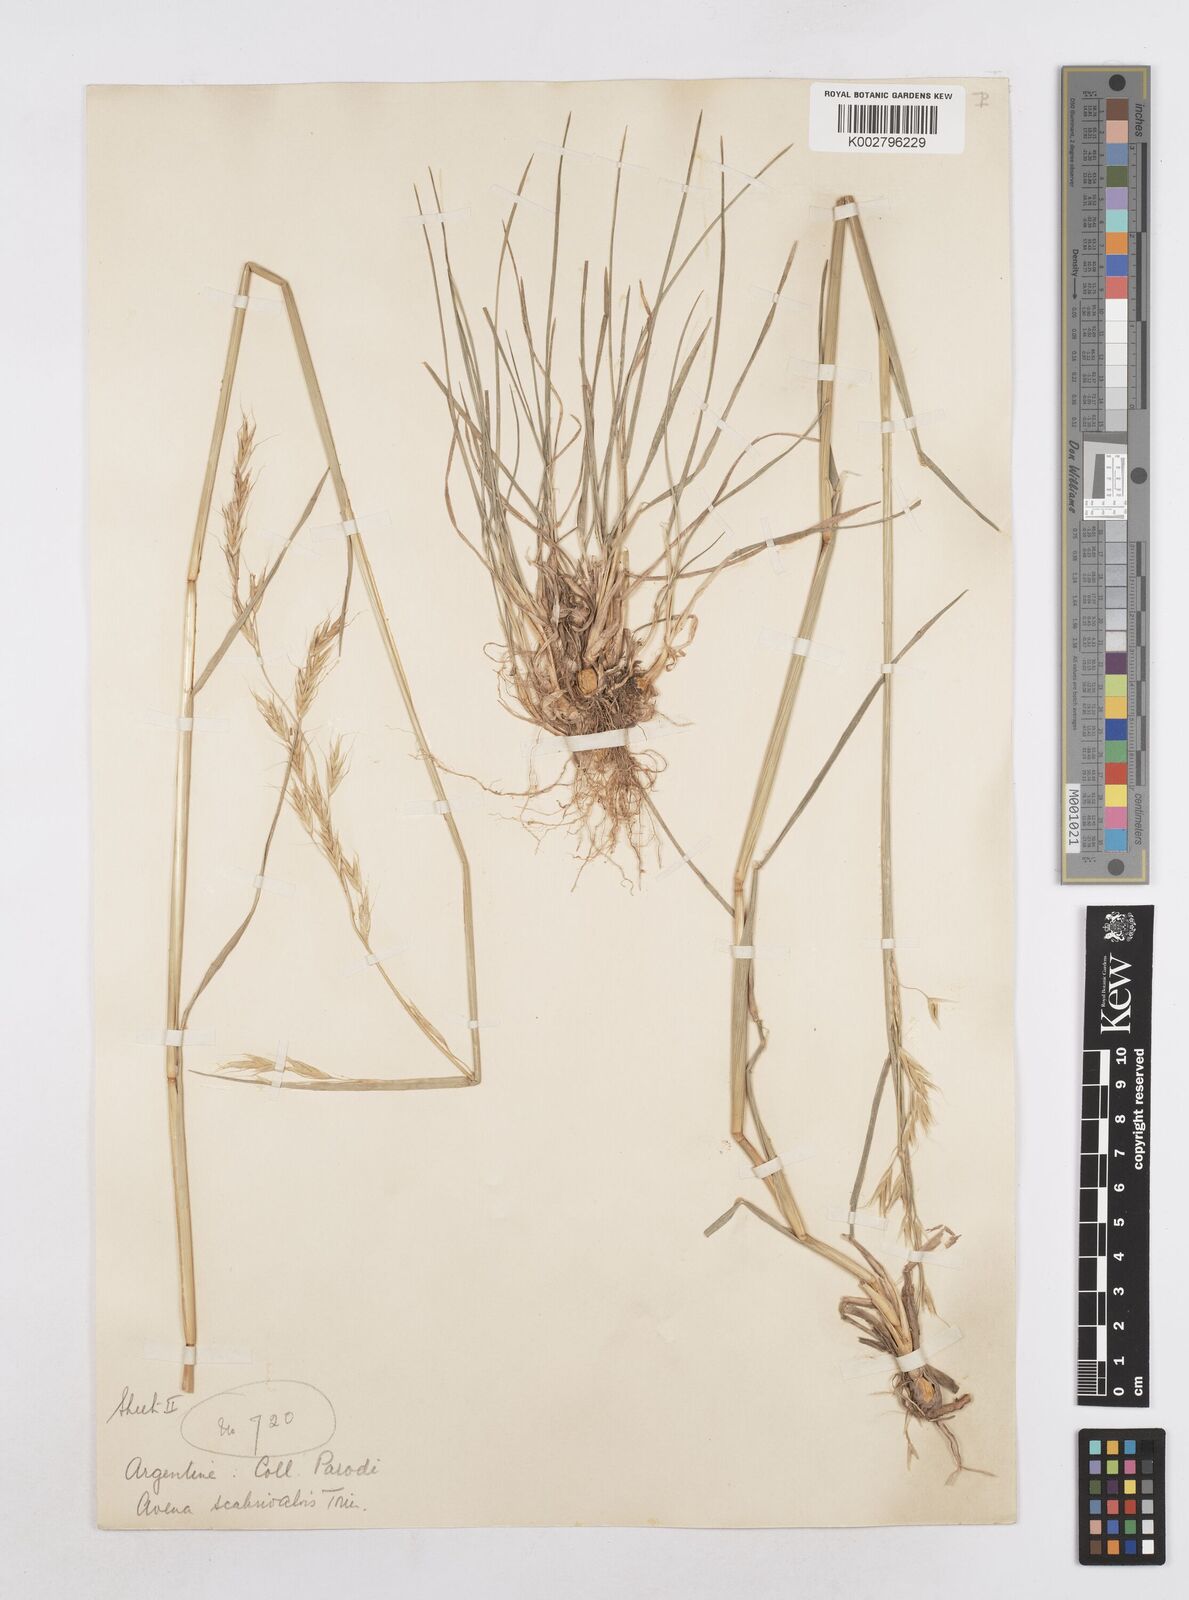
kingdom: Plantae
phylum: Tracheophyta
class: Liliopsida
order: Poales
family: Poaceae
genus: Helictotrichon
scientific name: Helictotrichon
